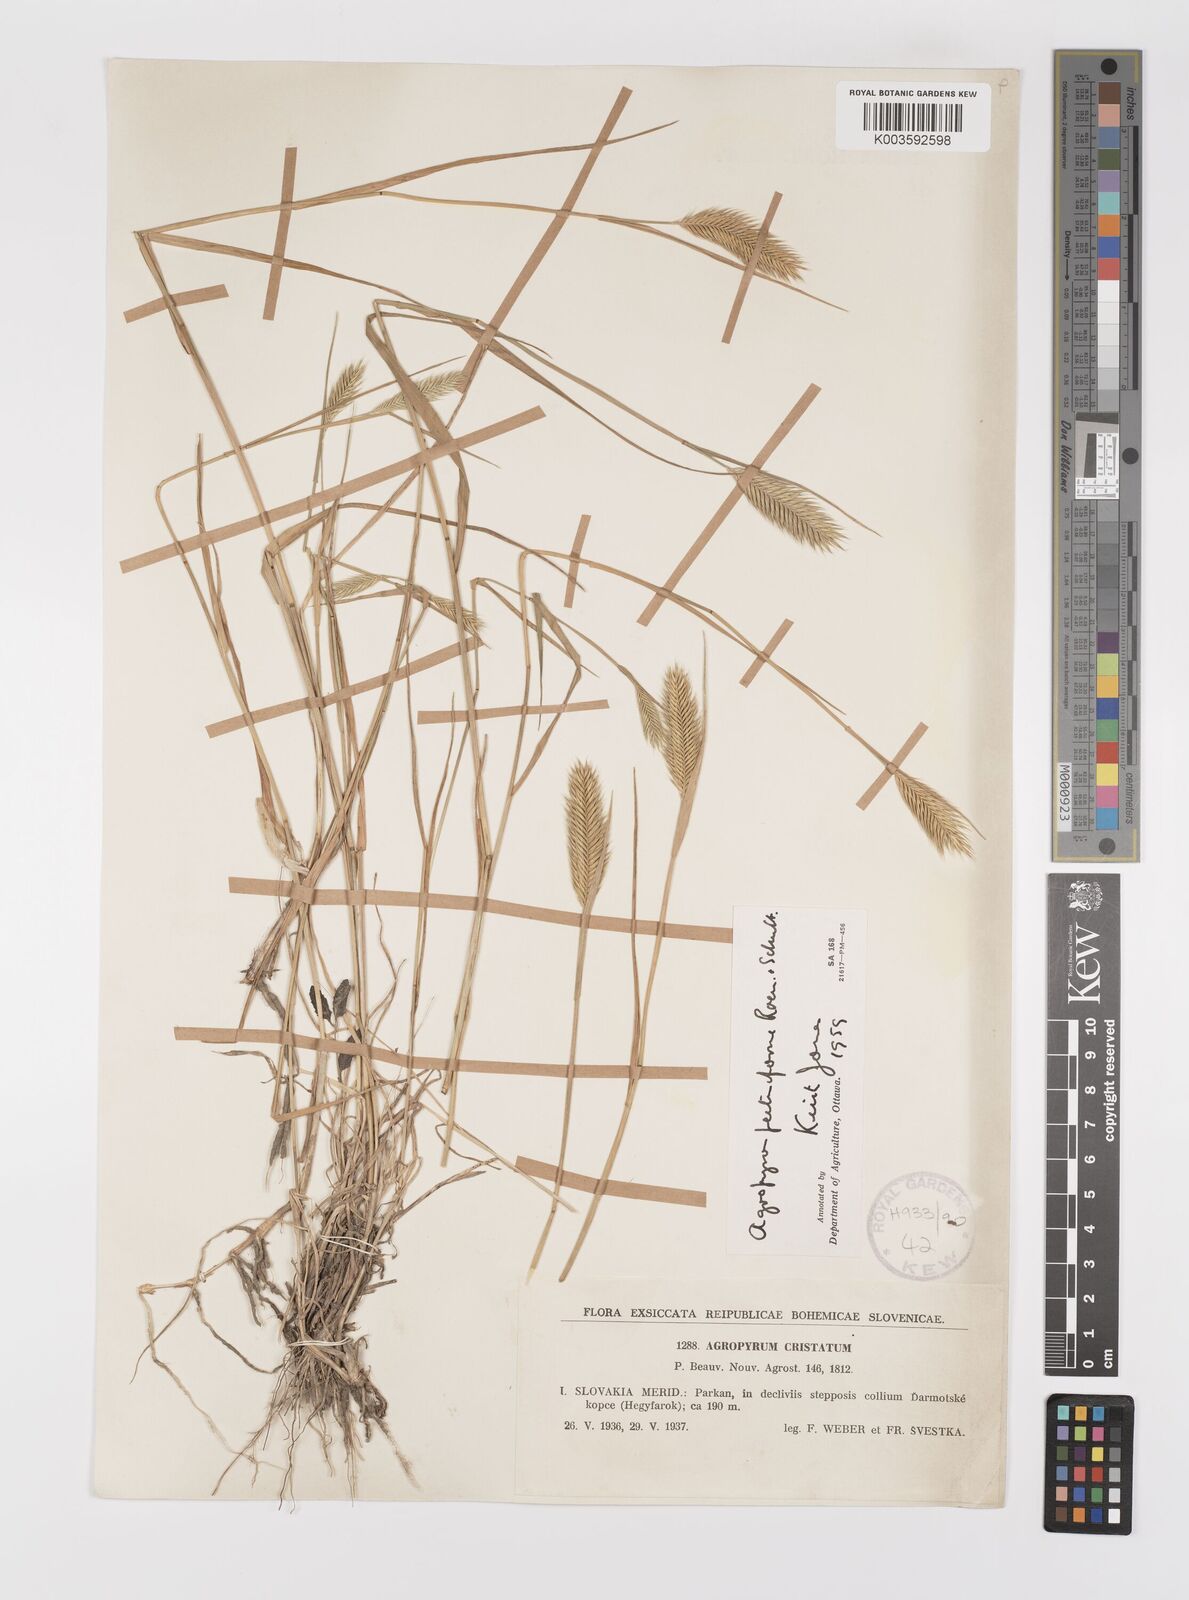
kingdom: Plantae
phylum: Tracheophyta
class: Liliopsida
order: Poales
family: Poaceae
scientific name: Poaceae
